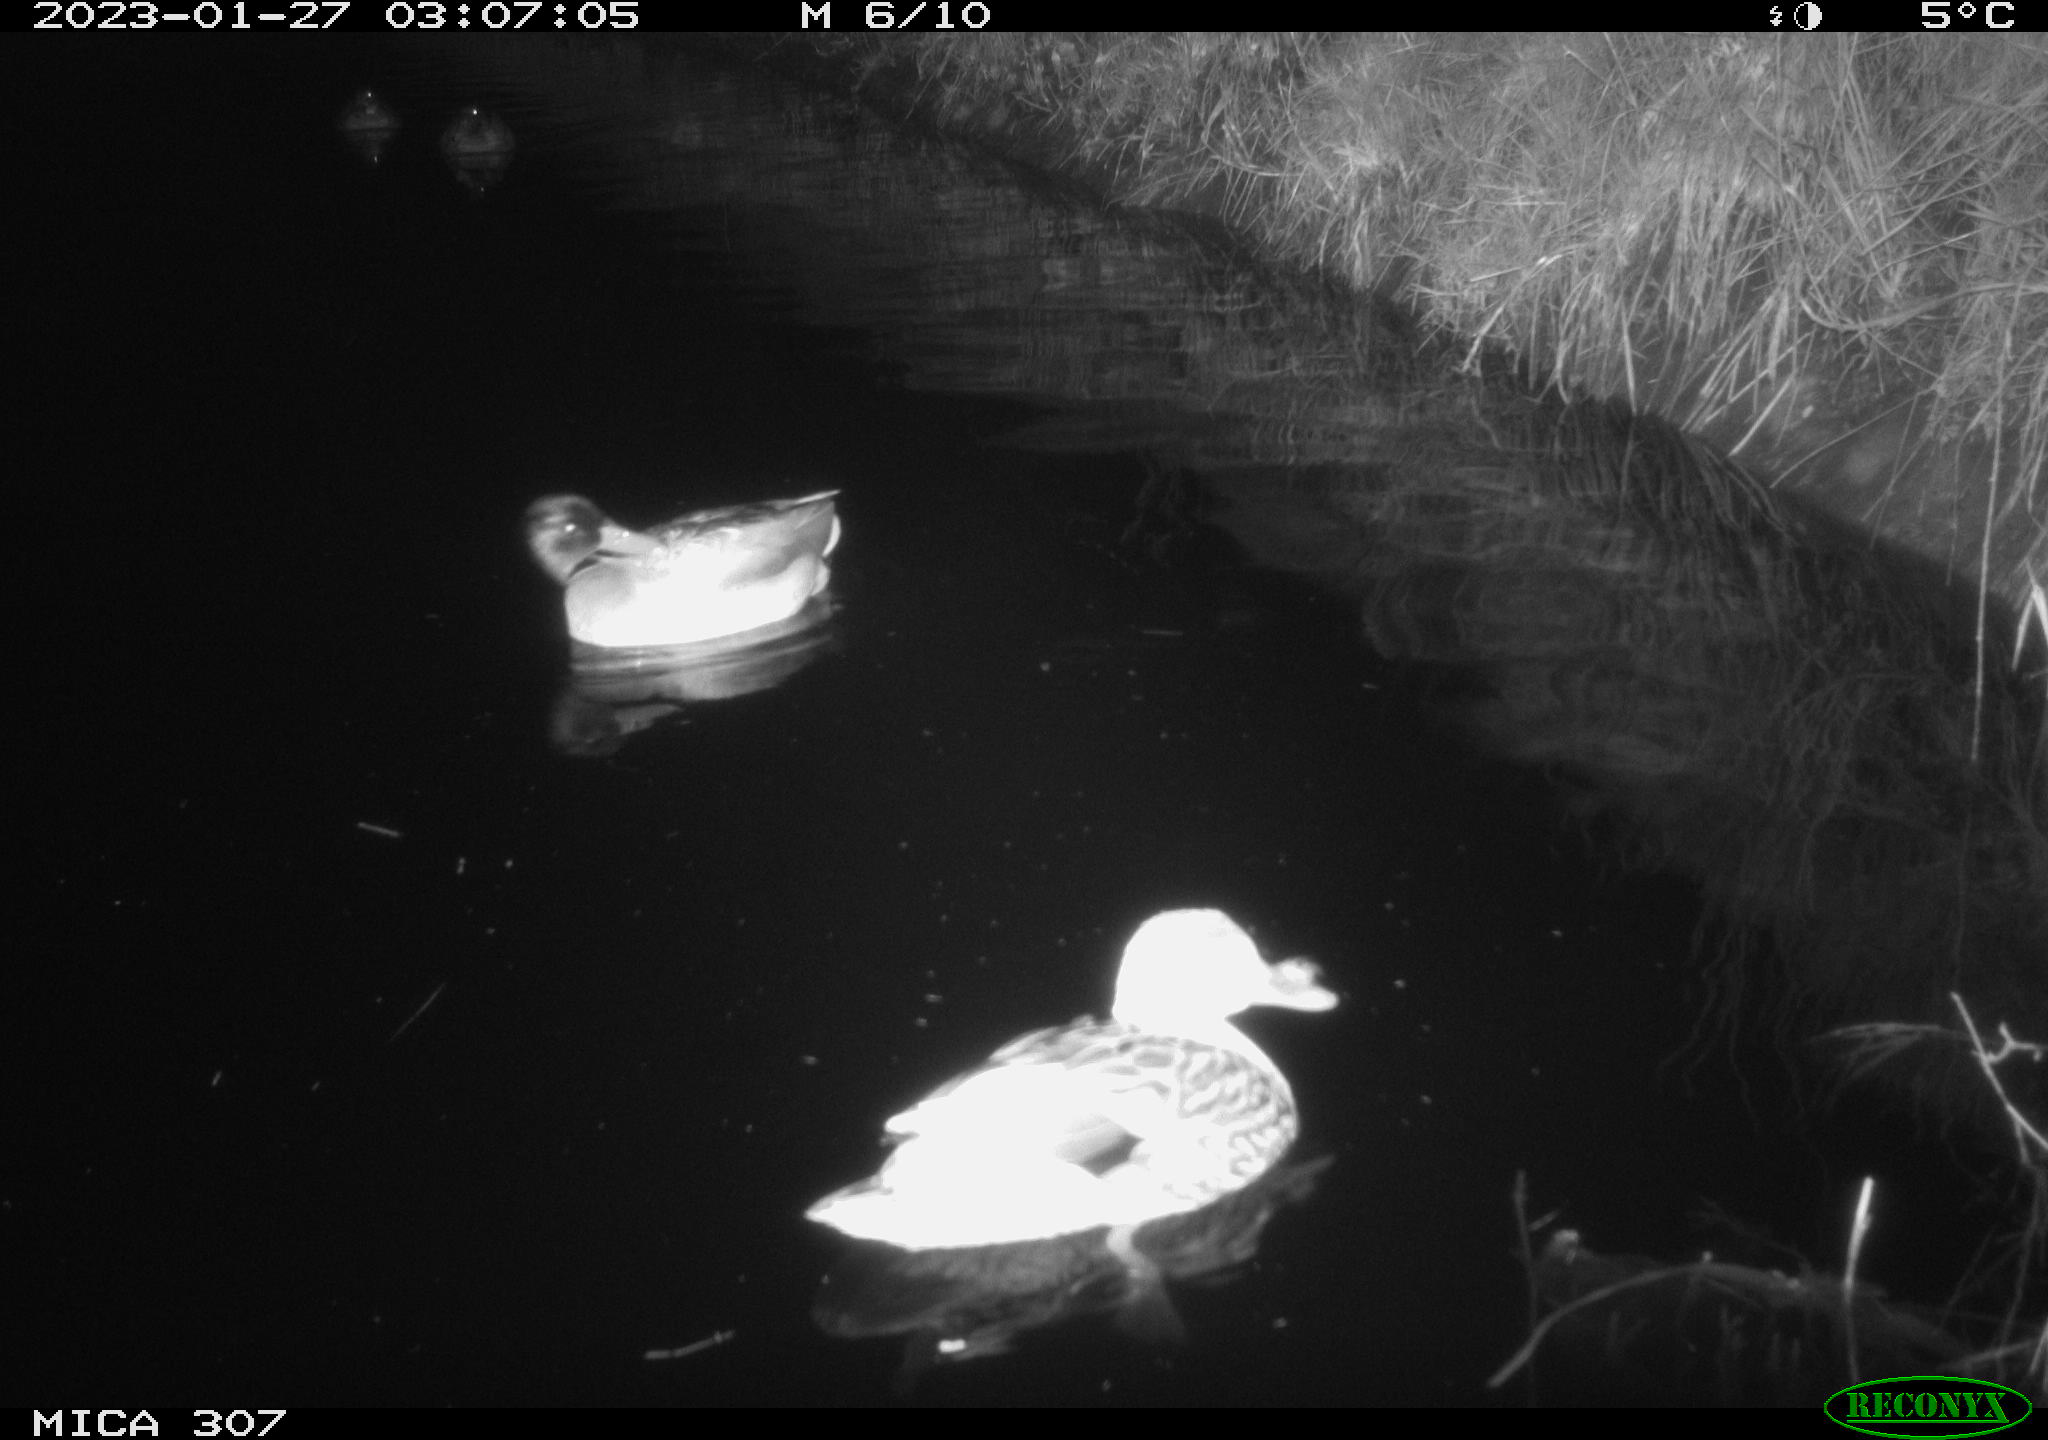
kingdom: Animalia
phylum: Chordata
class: Aves
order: Anseriformes
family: Anatidae
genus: Anas
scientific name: Anas
